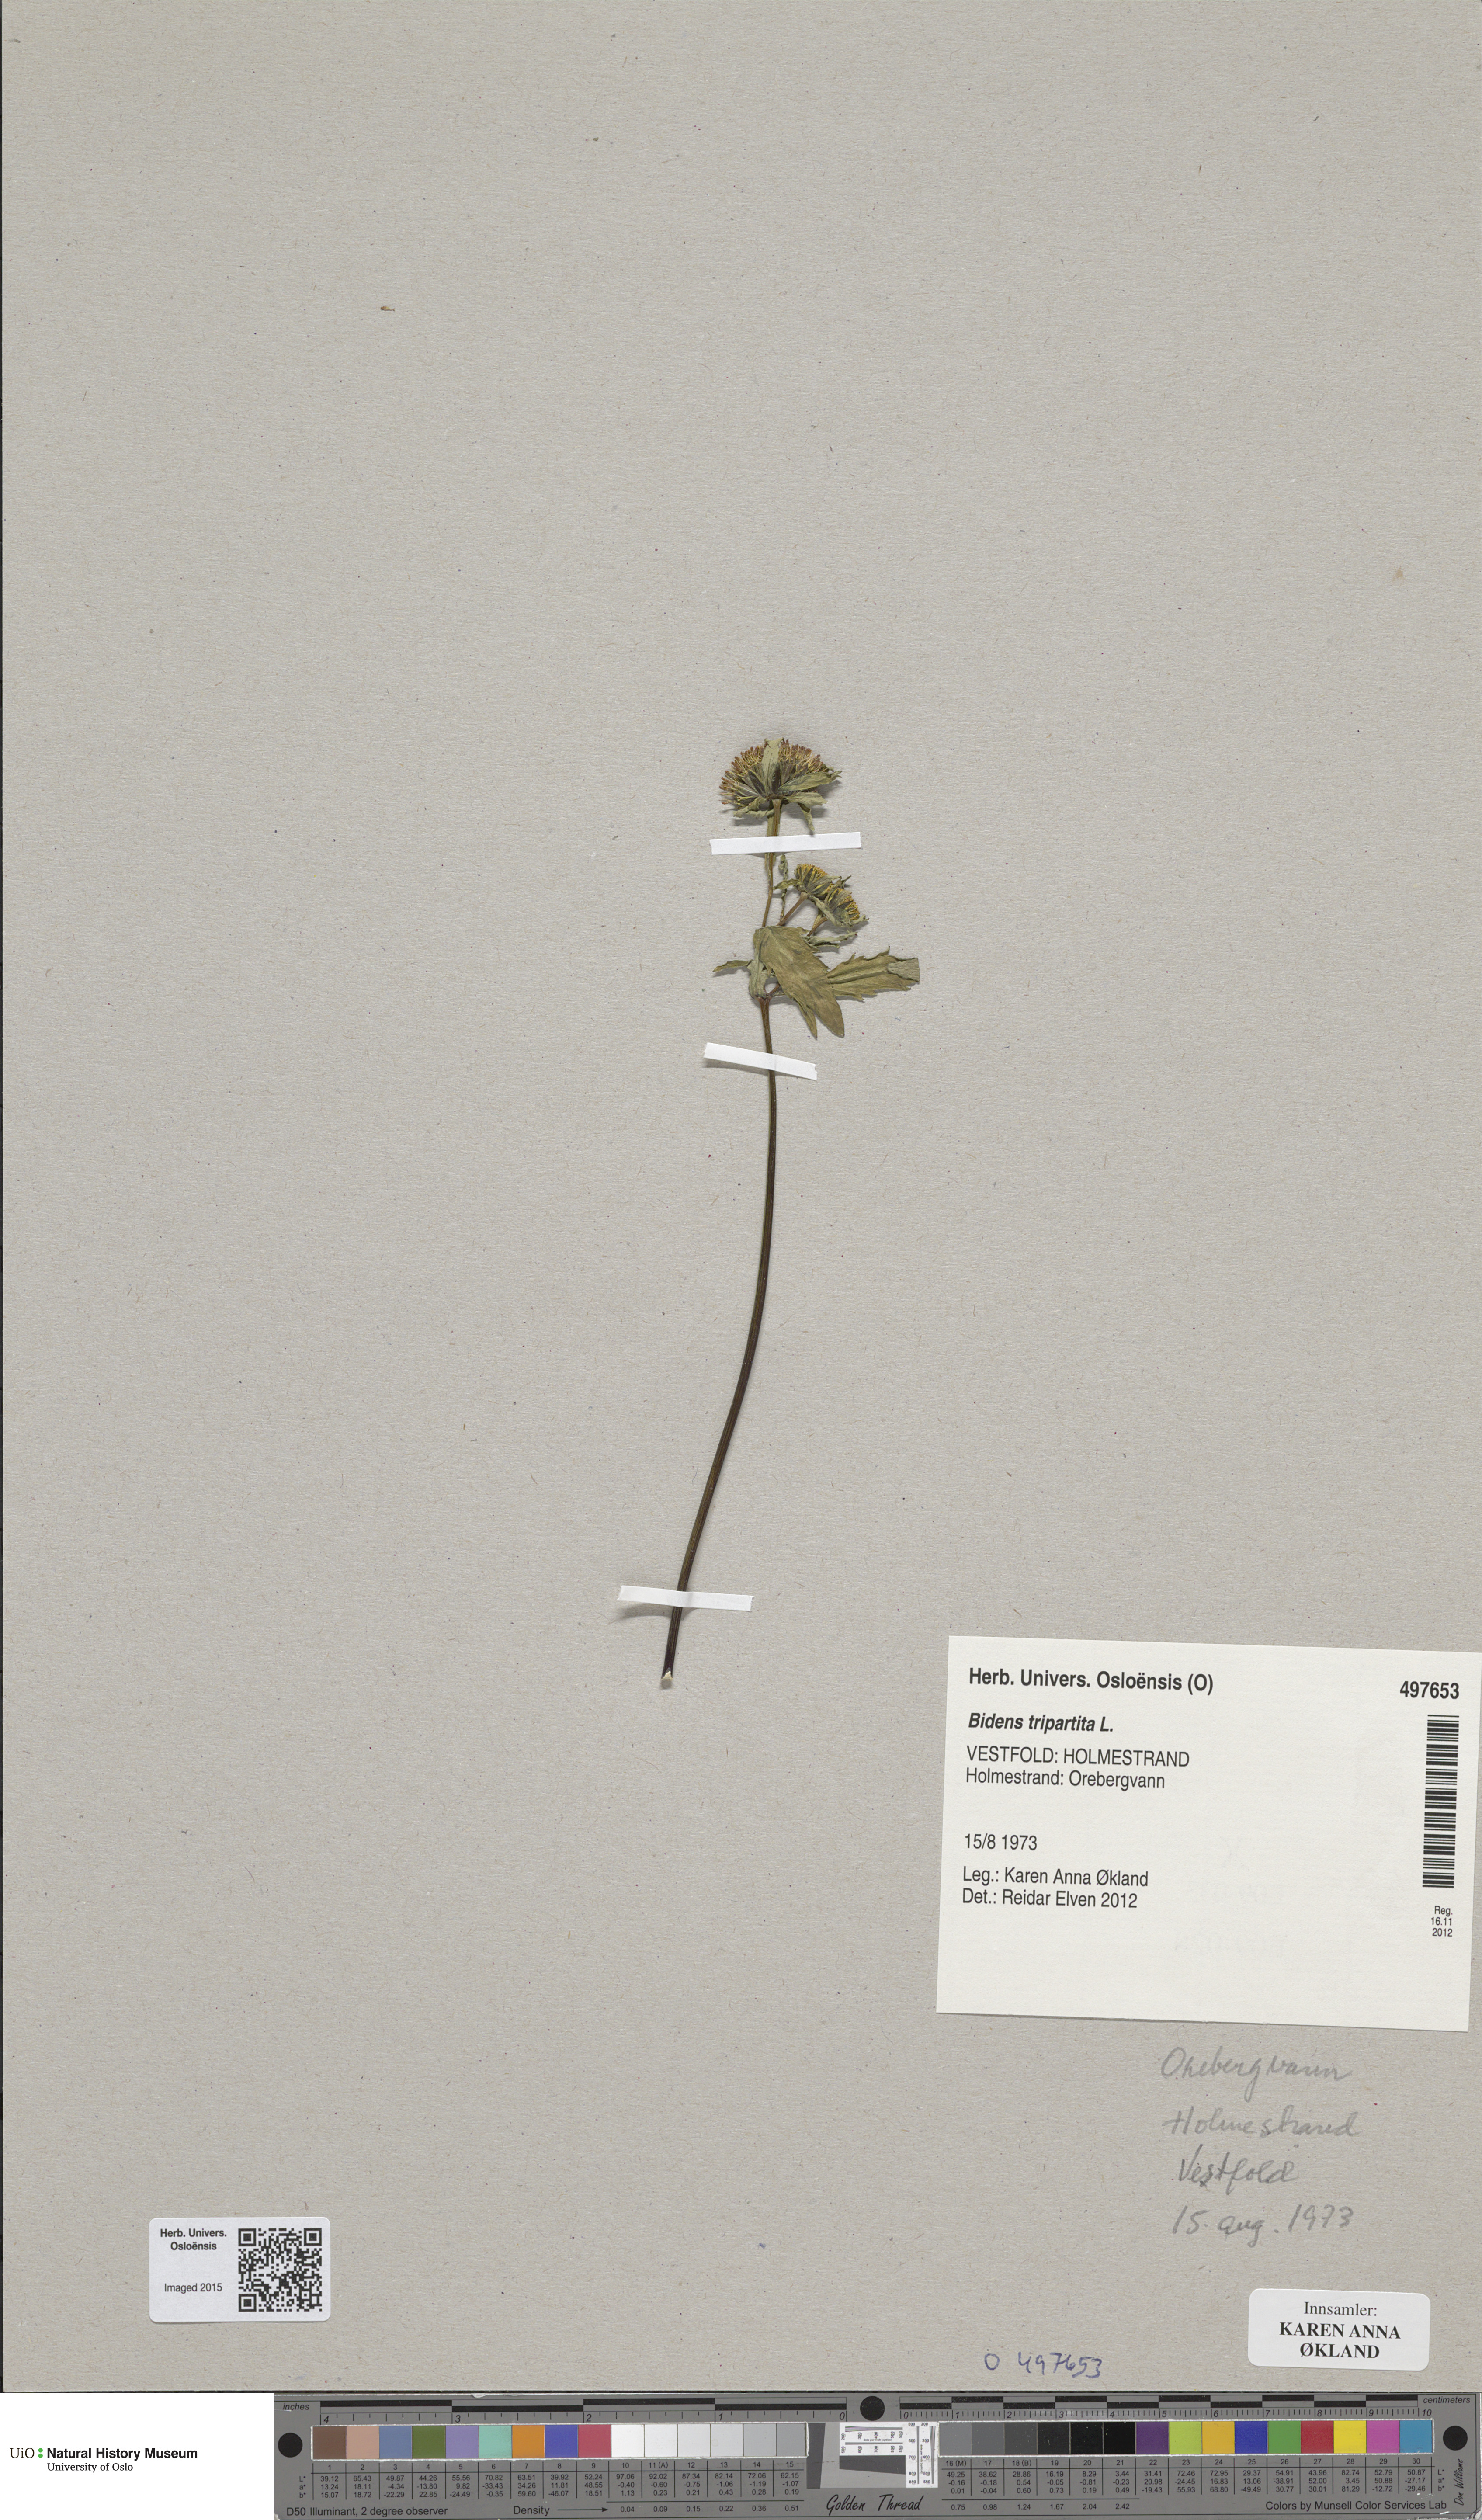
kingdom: Plantae
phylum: Tracheophyta
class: Magnoliopsida
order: Asterales
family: Asteraceae
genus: Bidens
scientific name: Bidens tripartita
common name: Trifid bur-marigold
